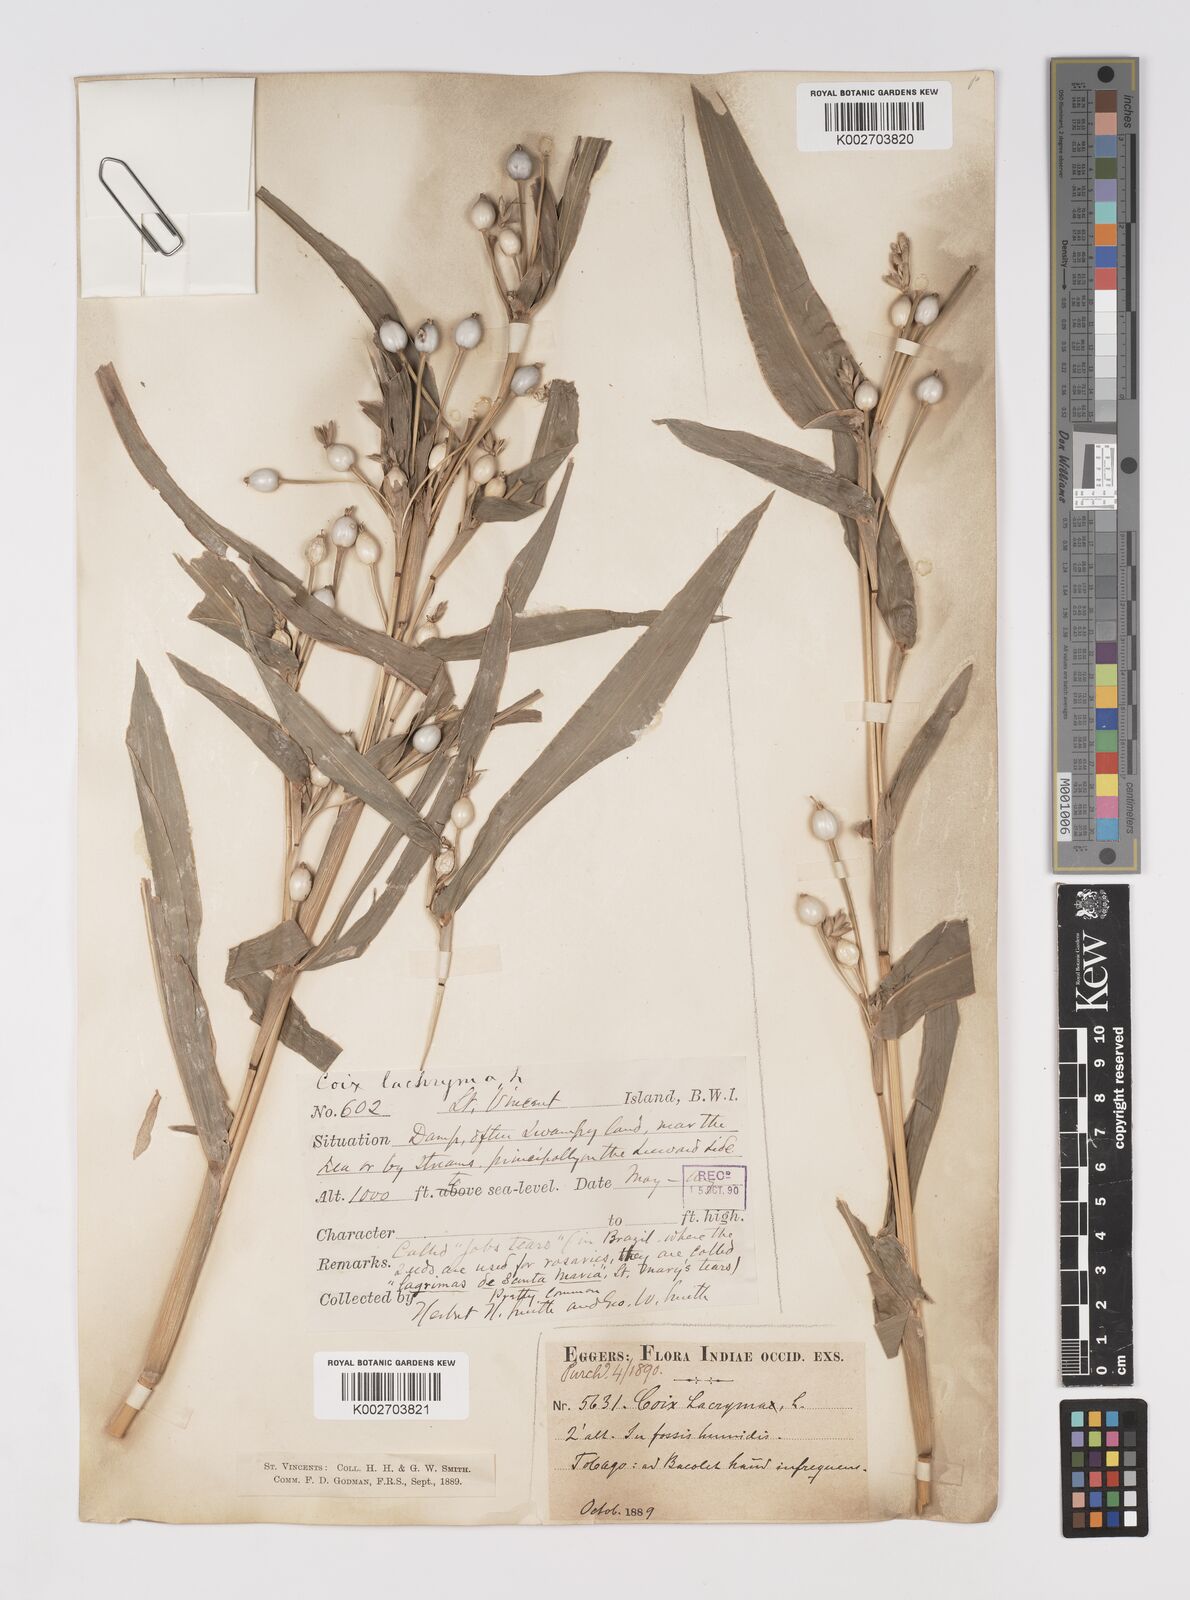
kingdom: Plantae
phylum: Tracheophyta
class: Liliopsida
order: Poales
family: Poaceae
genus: Coix
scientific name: Coix lacryma-jobi
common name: Job's tears
